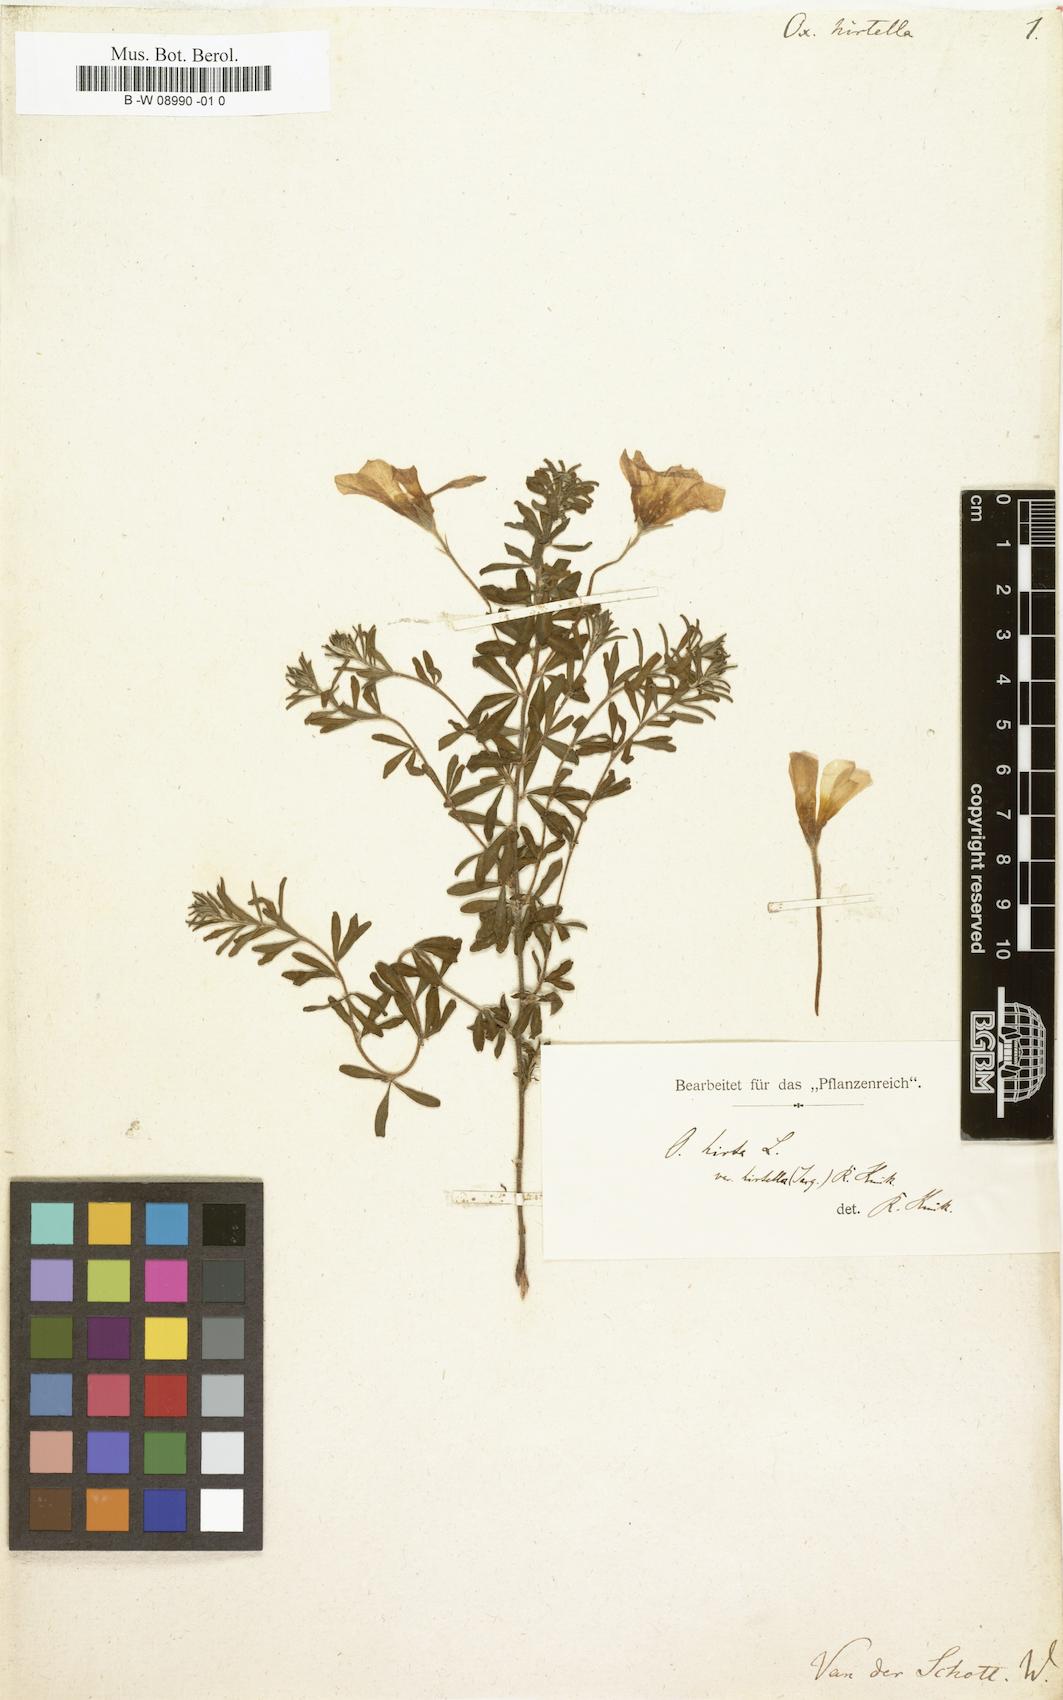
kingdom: Plantae
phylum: Tracheophyta
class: Magnoliopsida
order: Oxalidales
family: Oxalidaceae
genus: Oxalis
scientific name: Oxalis
